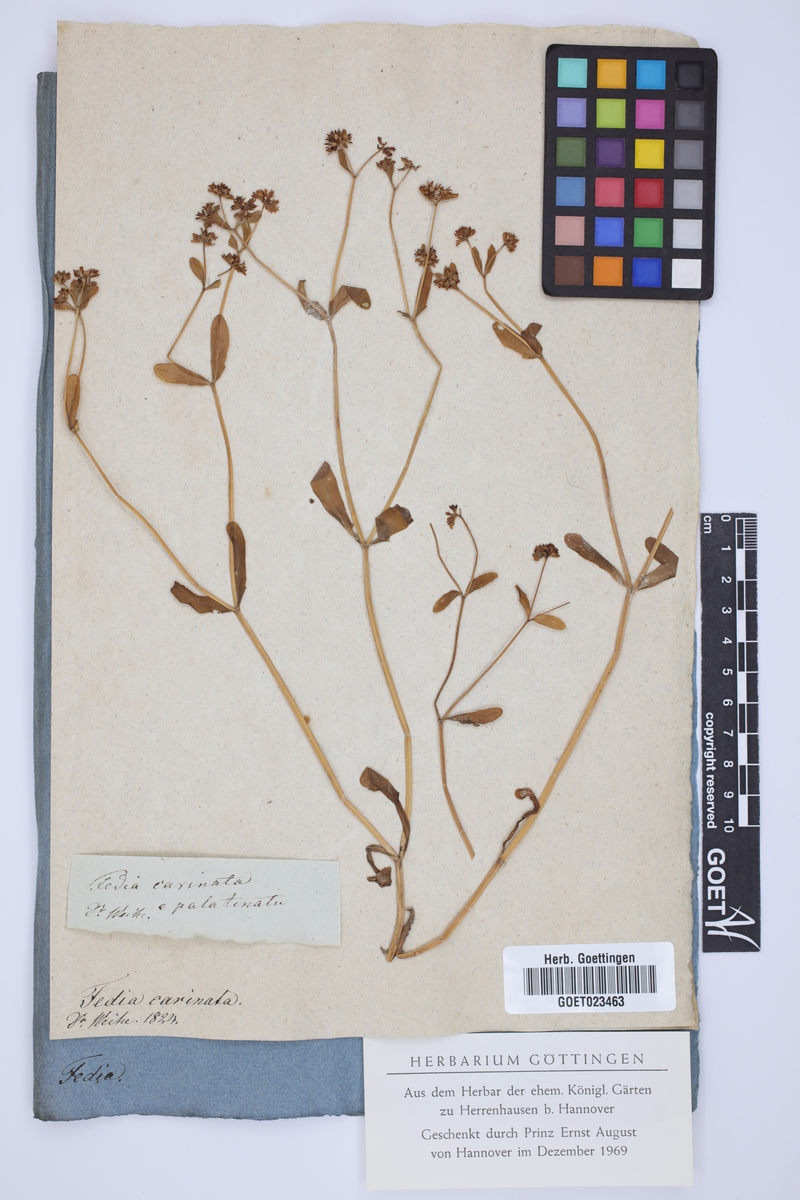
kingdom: Plantae
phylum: Tracheophyta
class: Magnoliopsida
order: Dipsacales
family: Caprifoliaceae
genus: Valerianella
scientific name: Valerianella carinata
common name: Keeled-fruited cornsalad
